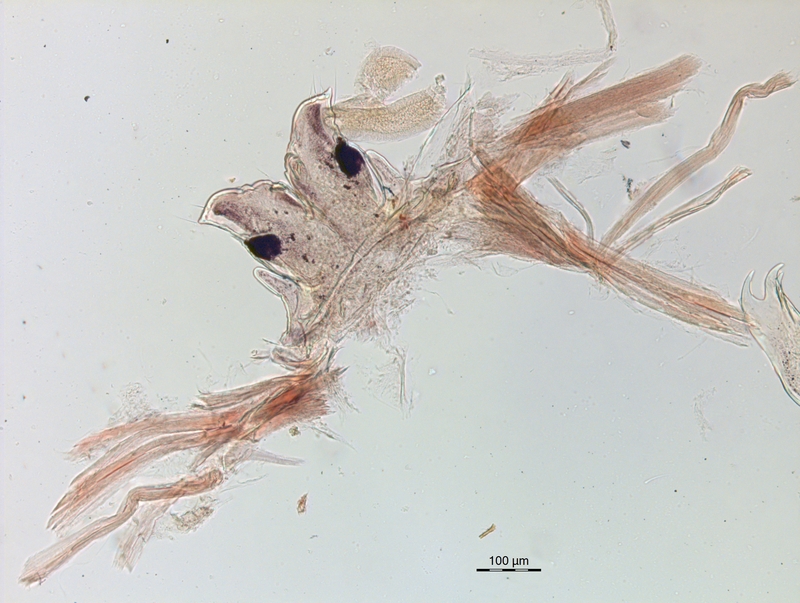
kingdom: Animalia
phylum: Arthropoda
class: Diplopoda
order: Chordeumatida
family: Craspedosomatidae
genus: Ochogona
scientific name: Ochogona caroli
